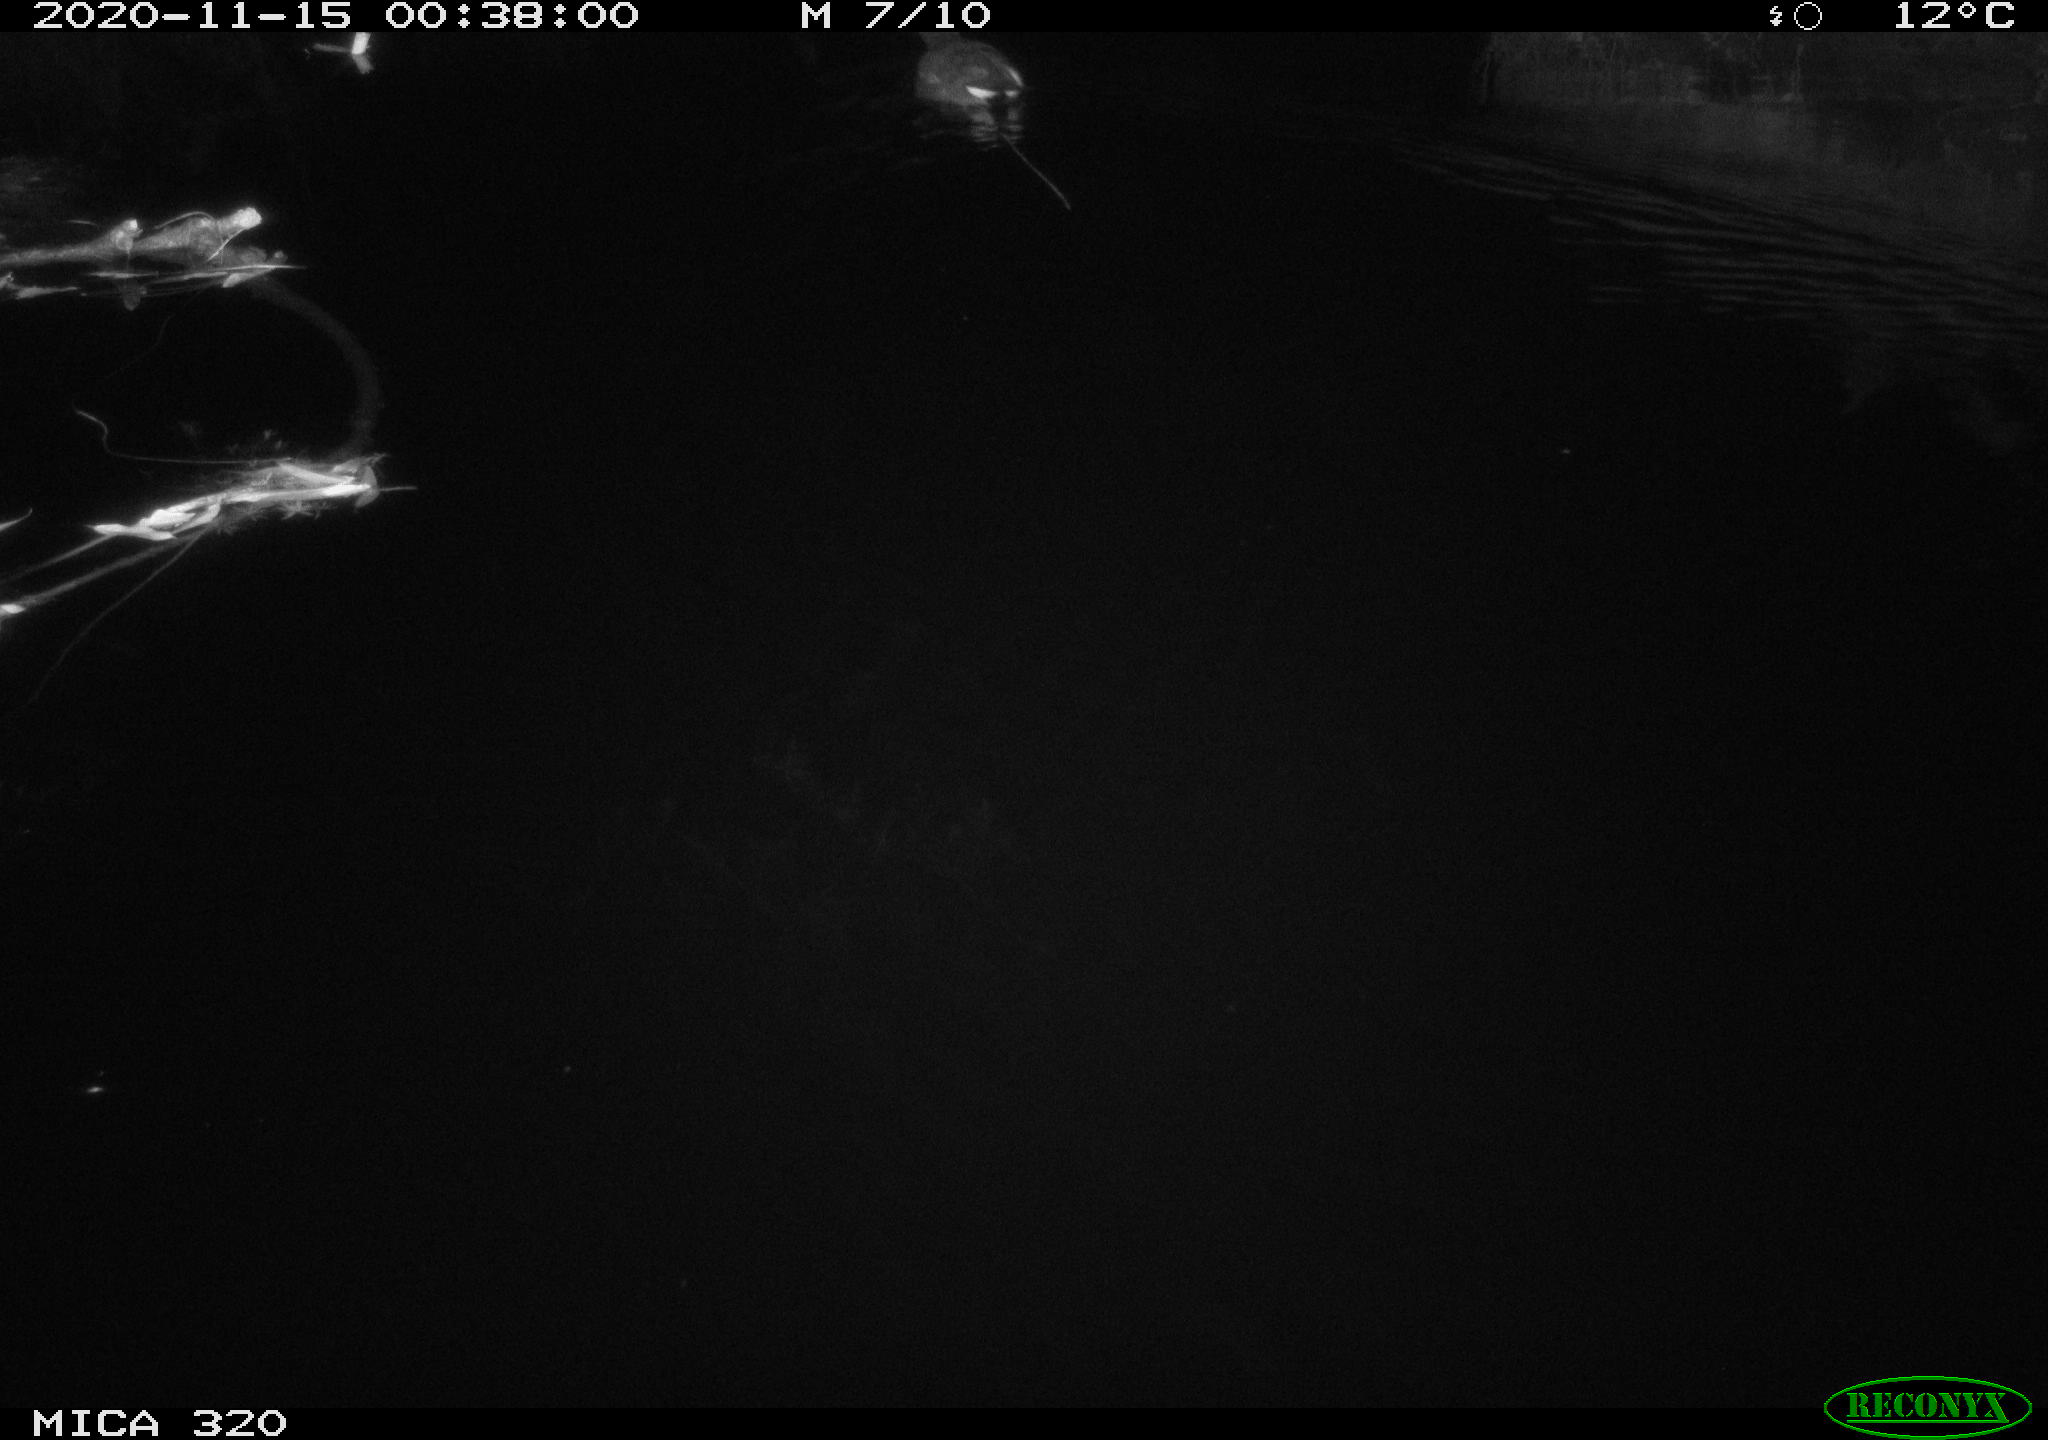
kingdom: Animalia
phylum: Chordata
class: Aves
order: Gruiformes
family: Rallidae
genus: Gallinula
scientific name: Gallinula chloropus
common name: Common moorhen
